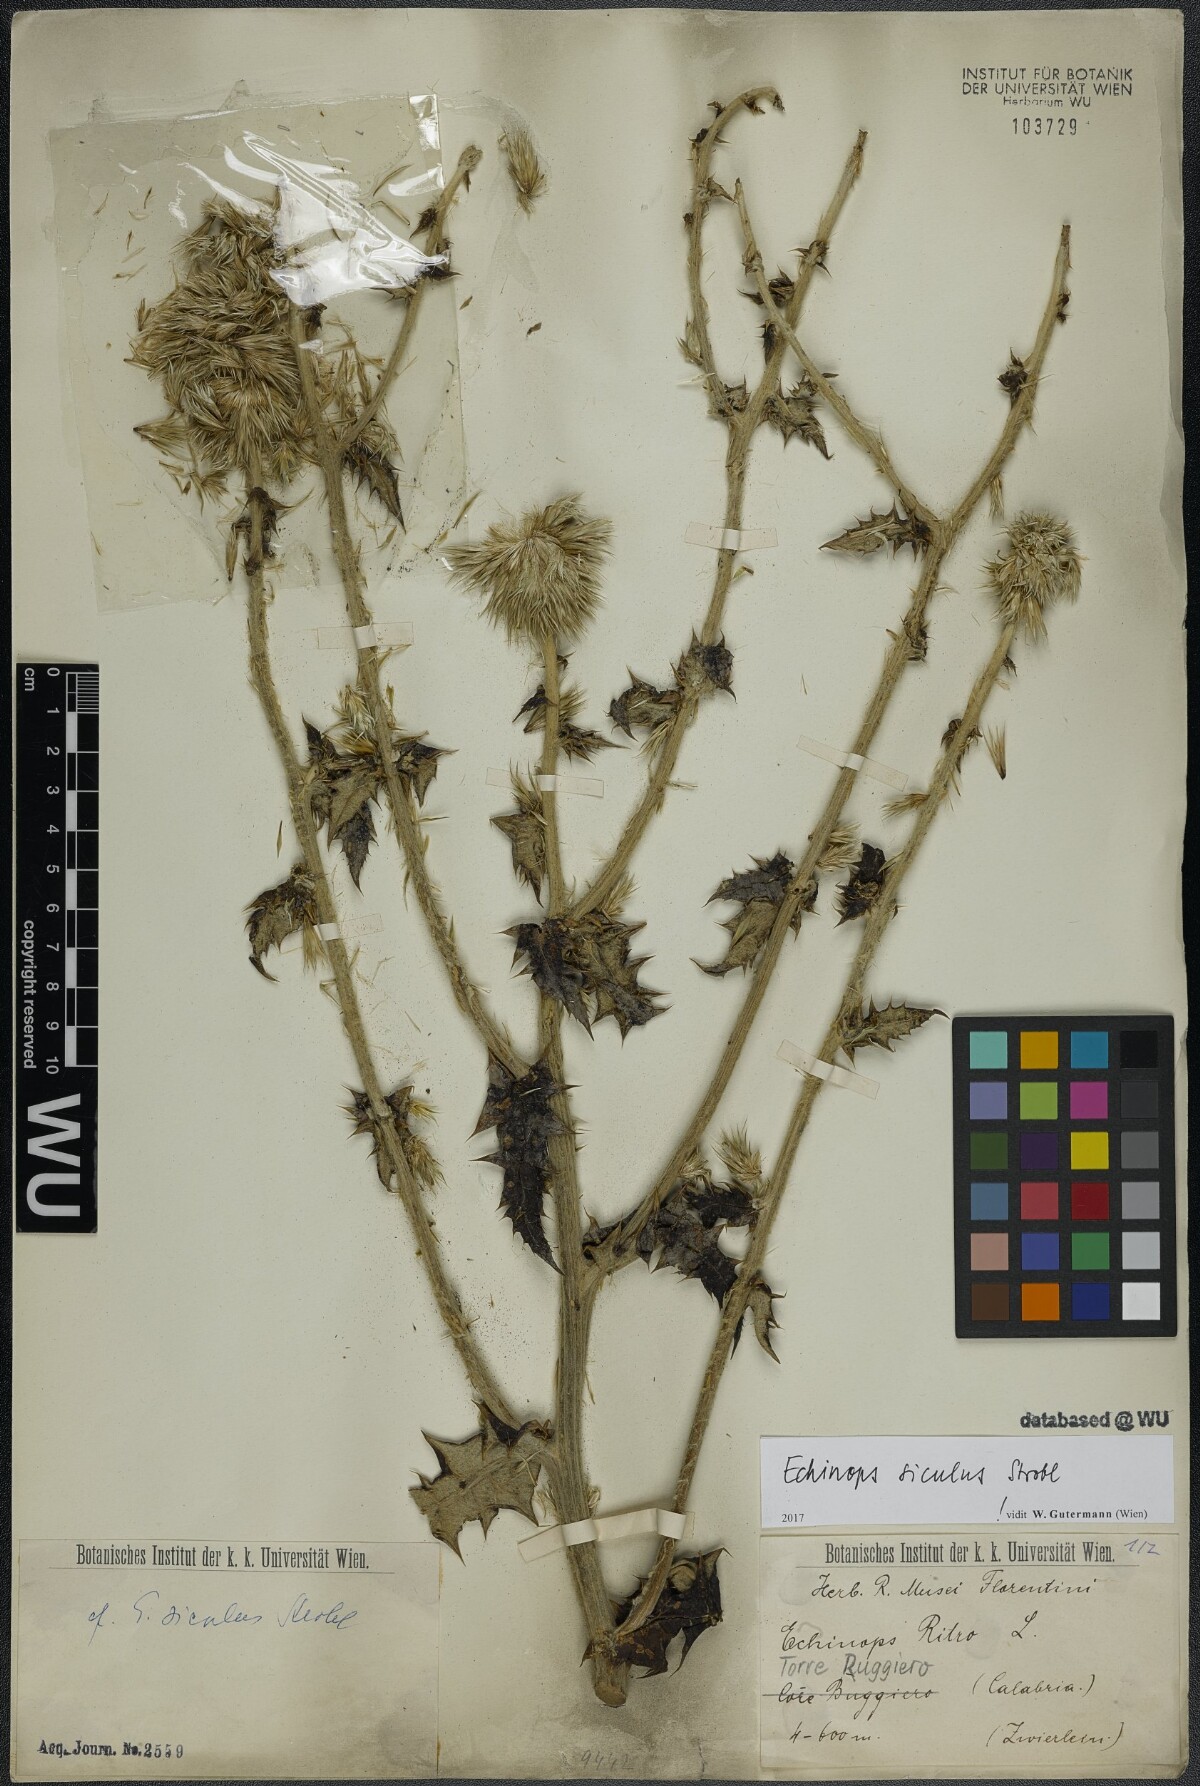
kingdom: Plantae
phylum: Tracheophyta
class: Magnoliopsida
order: Asterales
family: Asteraceae
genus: Echinops
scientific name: Echinops ritro
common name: Globe thistle
